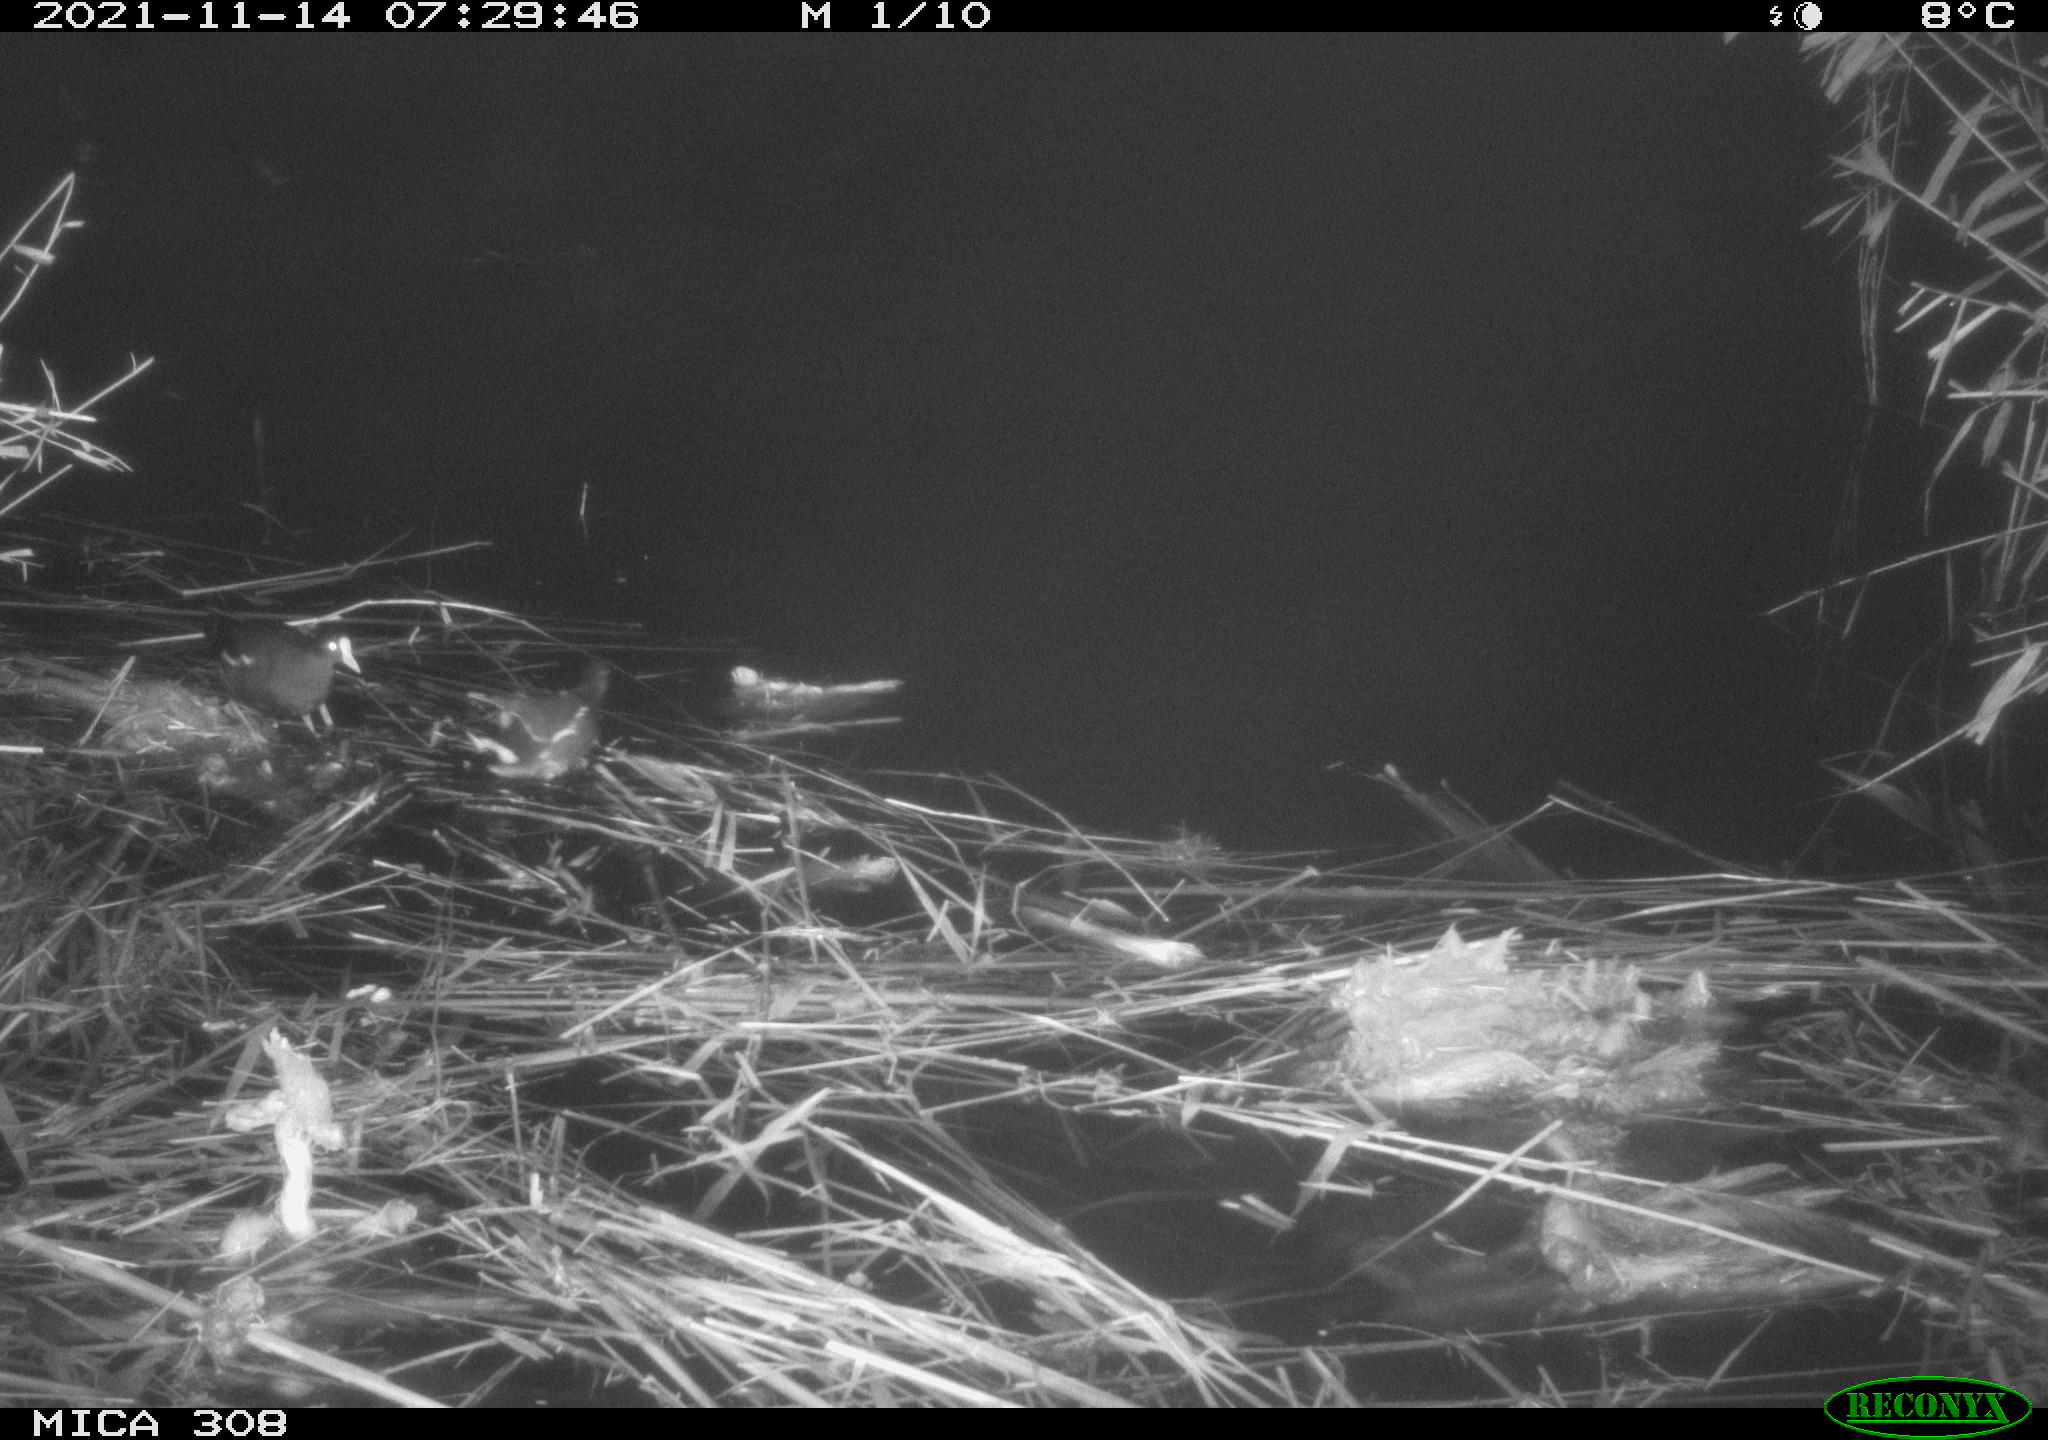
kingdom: Animalia
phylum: Chordata
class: Aves
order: Gruiformes
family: Rallidae
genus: Gallinula
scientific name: Gallinula chloropus
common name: Common moorhen
